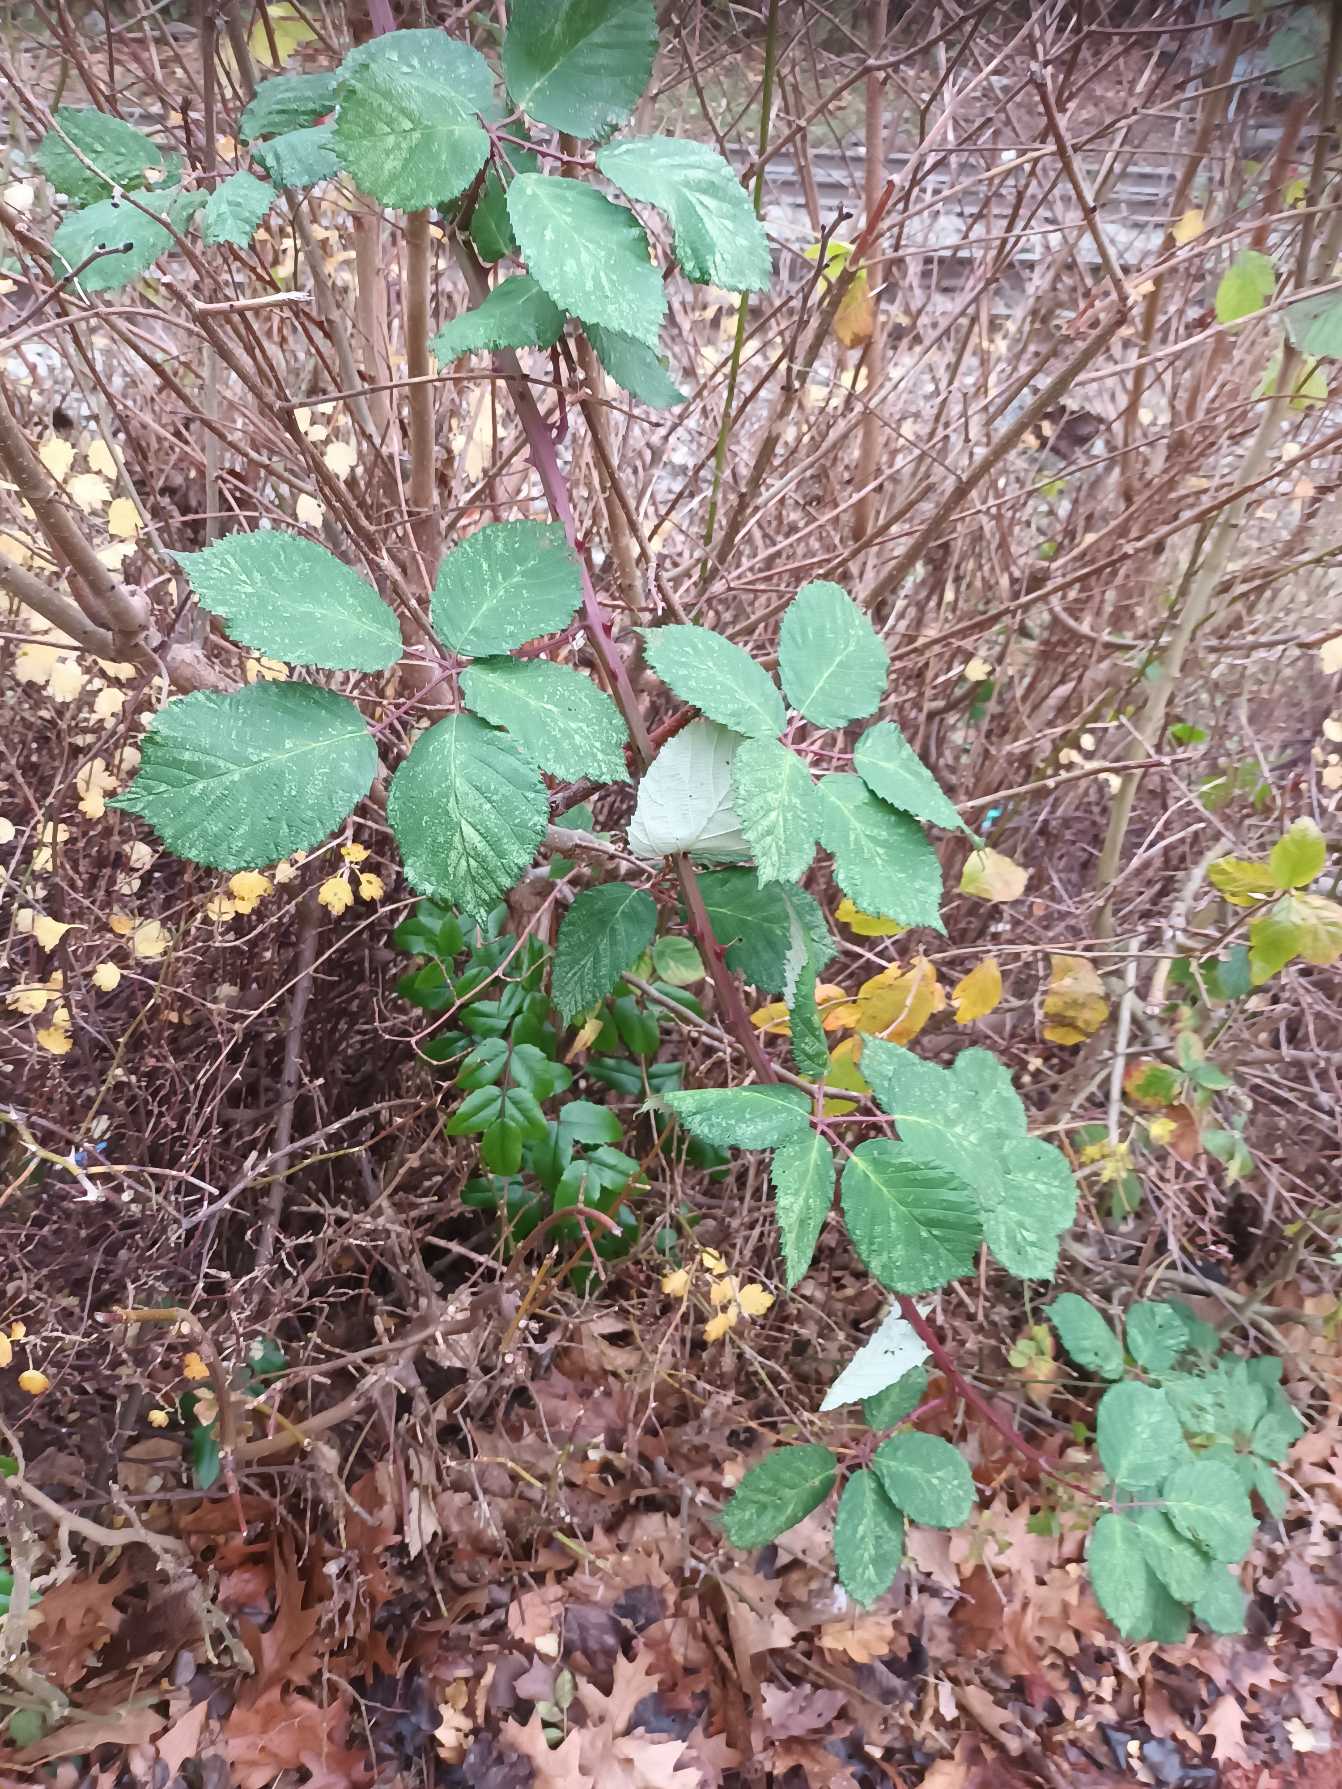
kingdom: Plantae
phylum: Tracheophyta
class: Magnoliopsida
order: Rosales
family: Rosaceae
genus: Rubus
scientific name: Rubus armeniacus
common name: Armensk brombær
